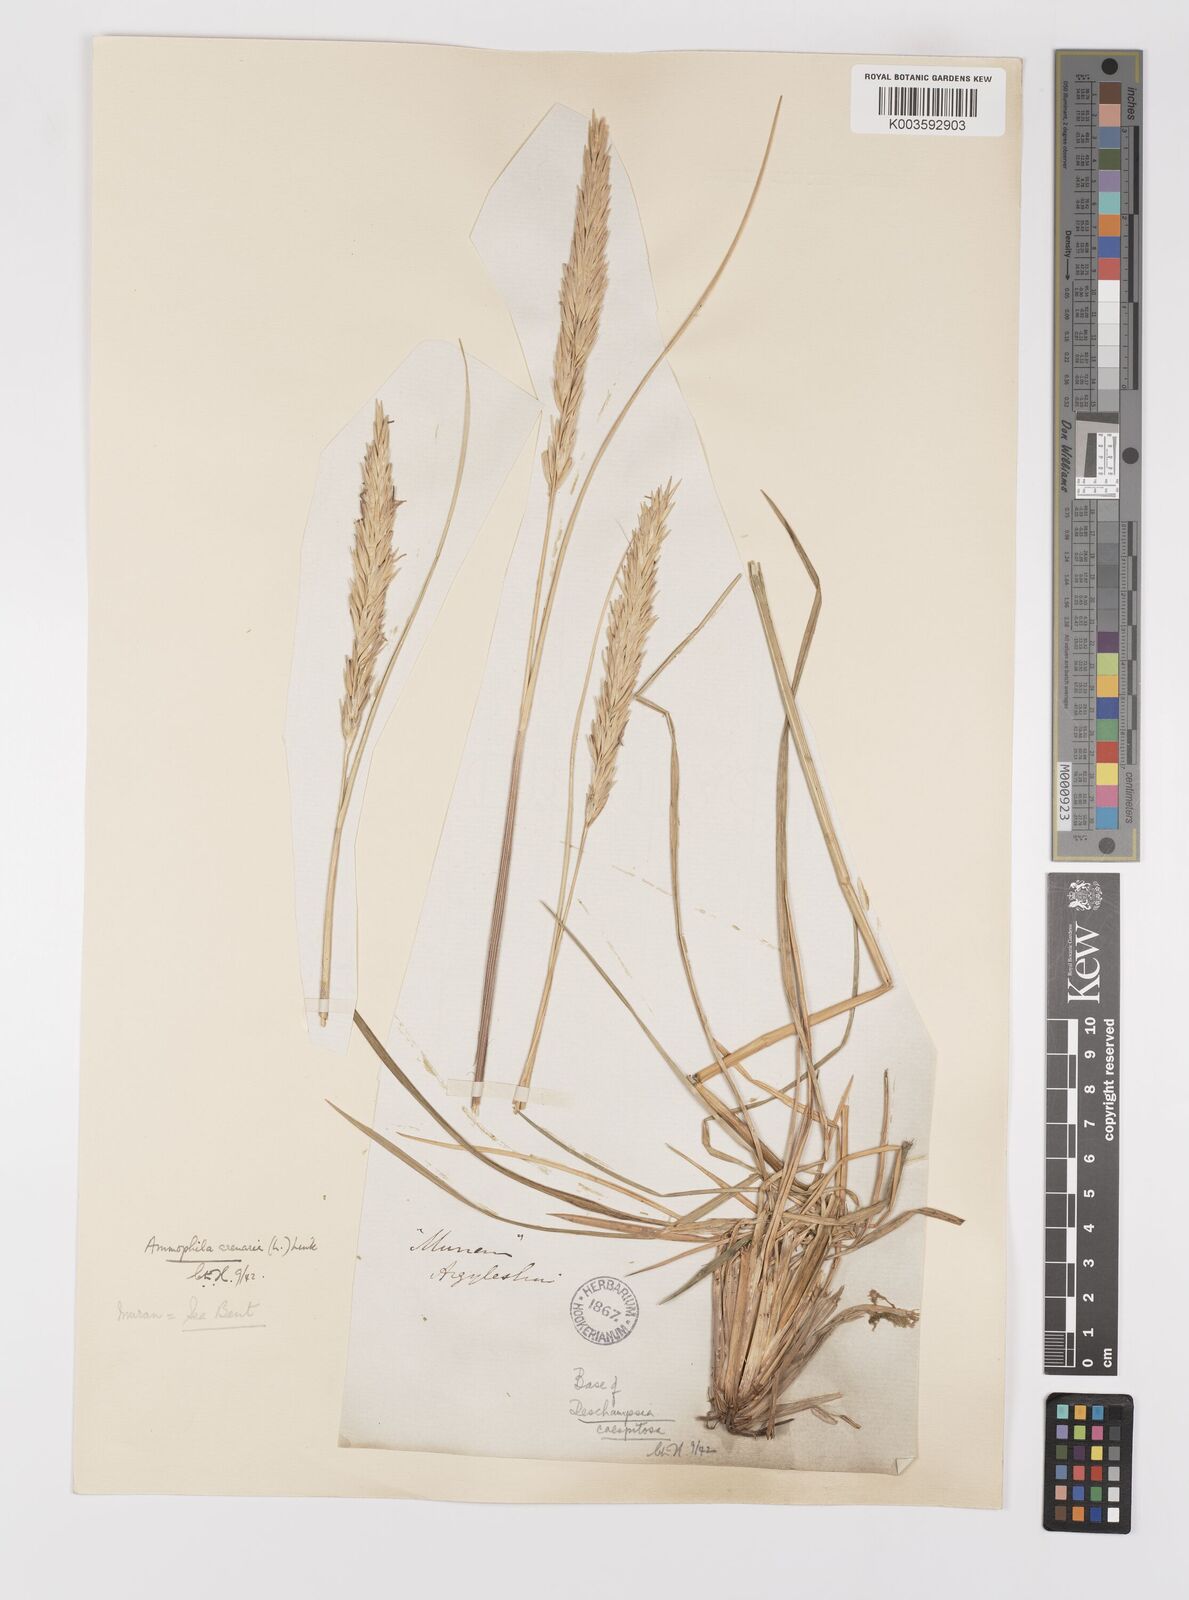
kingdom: Plantae
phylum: Tracheophyta
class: Liliopsida
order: Poales
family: Poaceae
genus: Calamagrostis
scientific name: Calamagrostis arenaria
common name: European beachgrass
